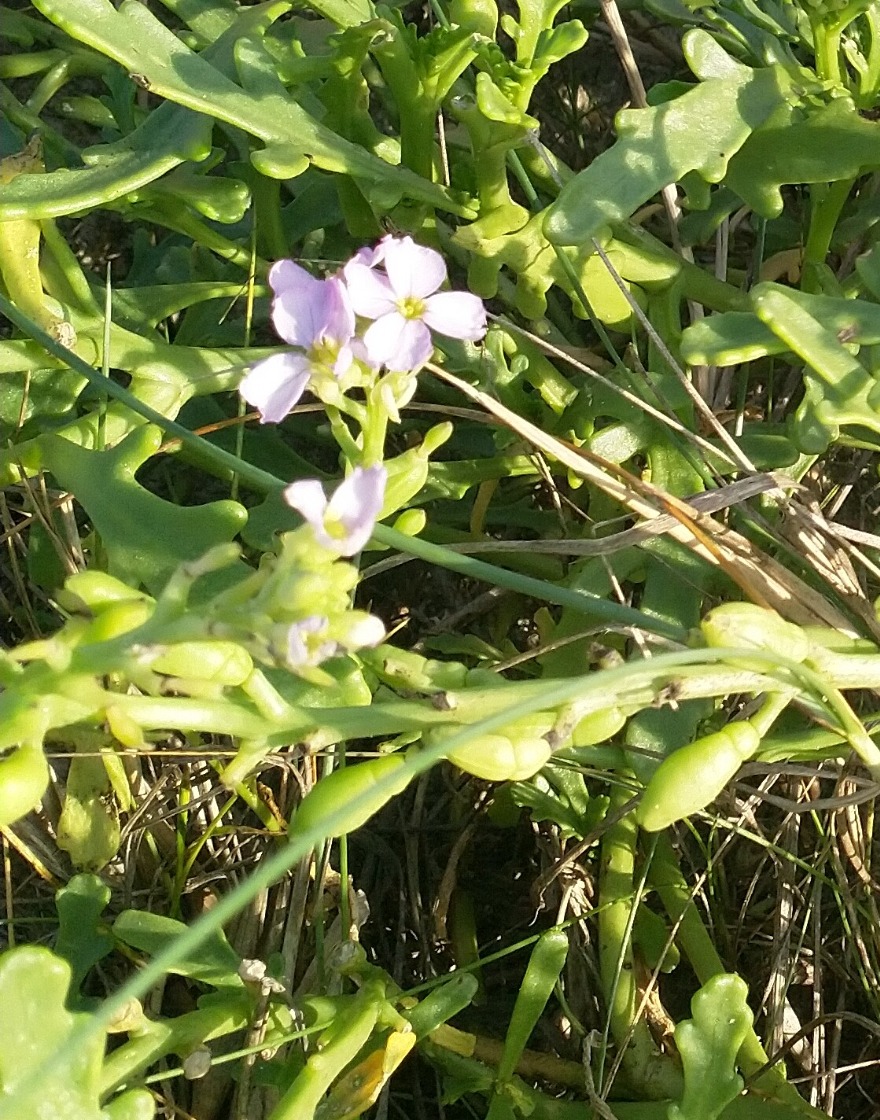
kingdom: Plantae
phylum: Tracheophyta
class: Magnoliopsida
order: Brassicales
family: Brassicaceae
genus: Cakile
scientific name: Cakile maritima
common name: Strandsennep
